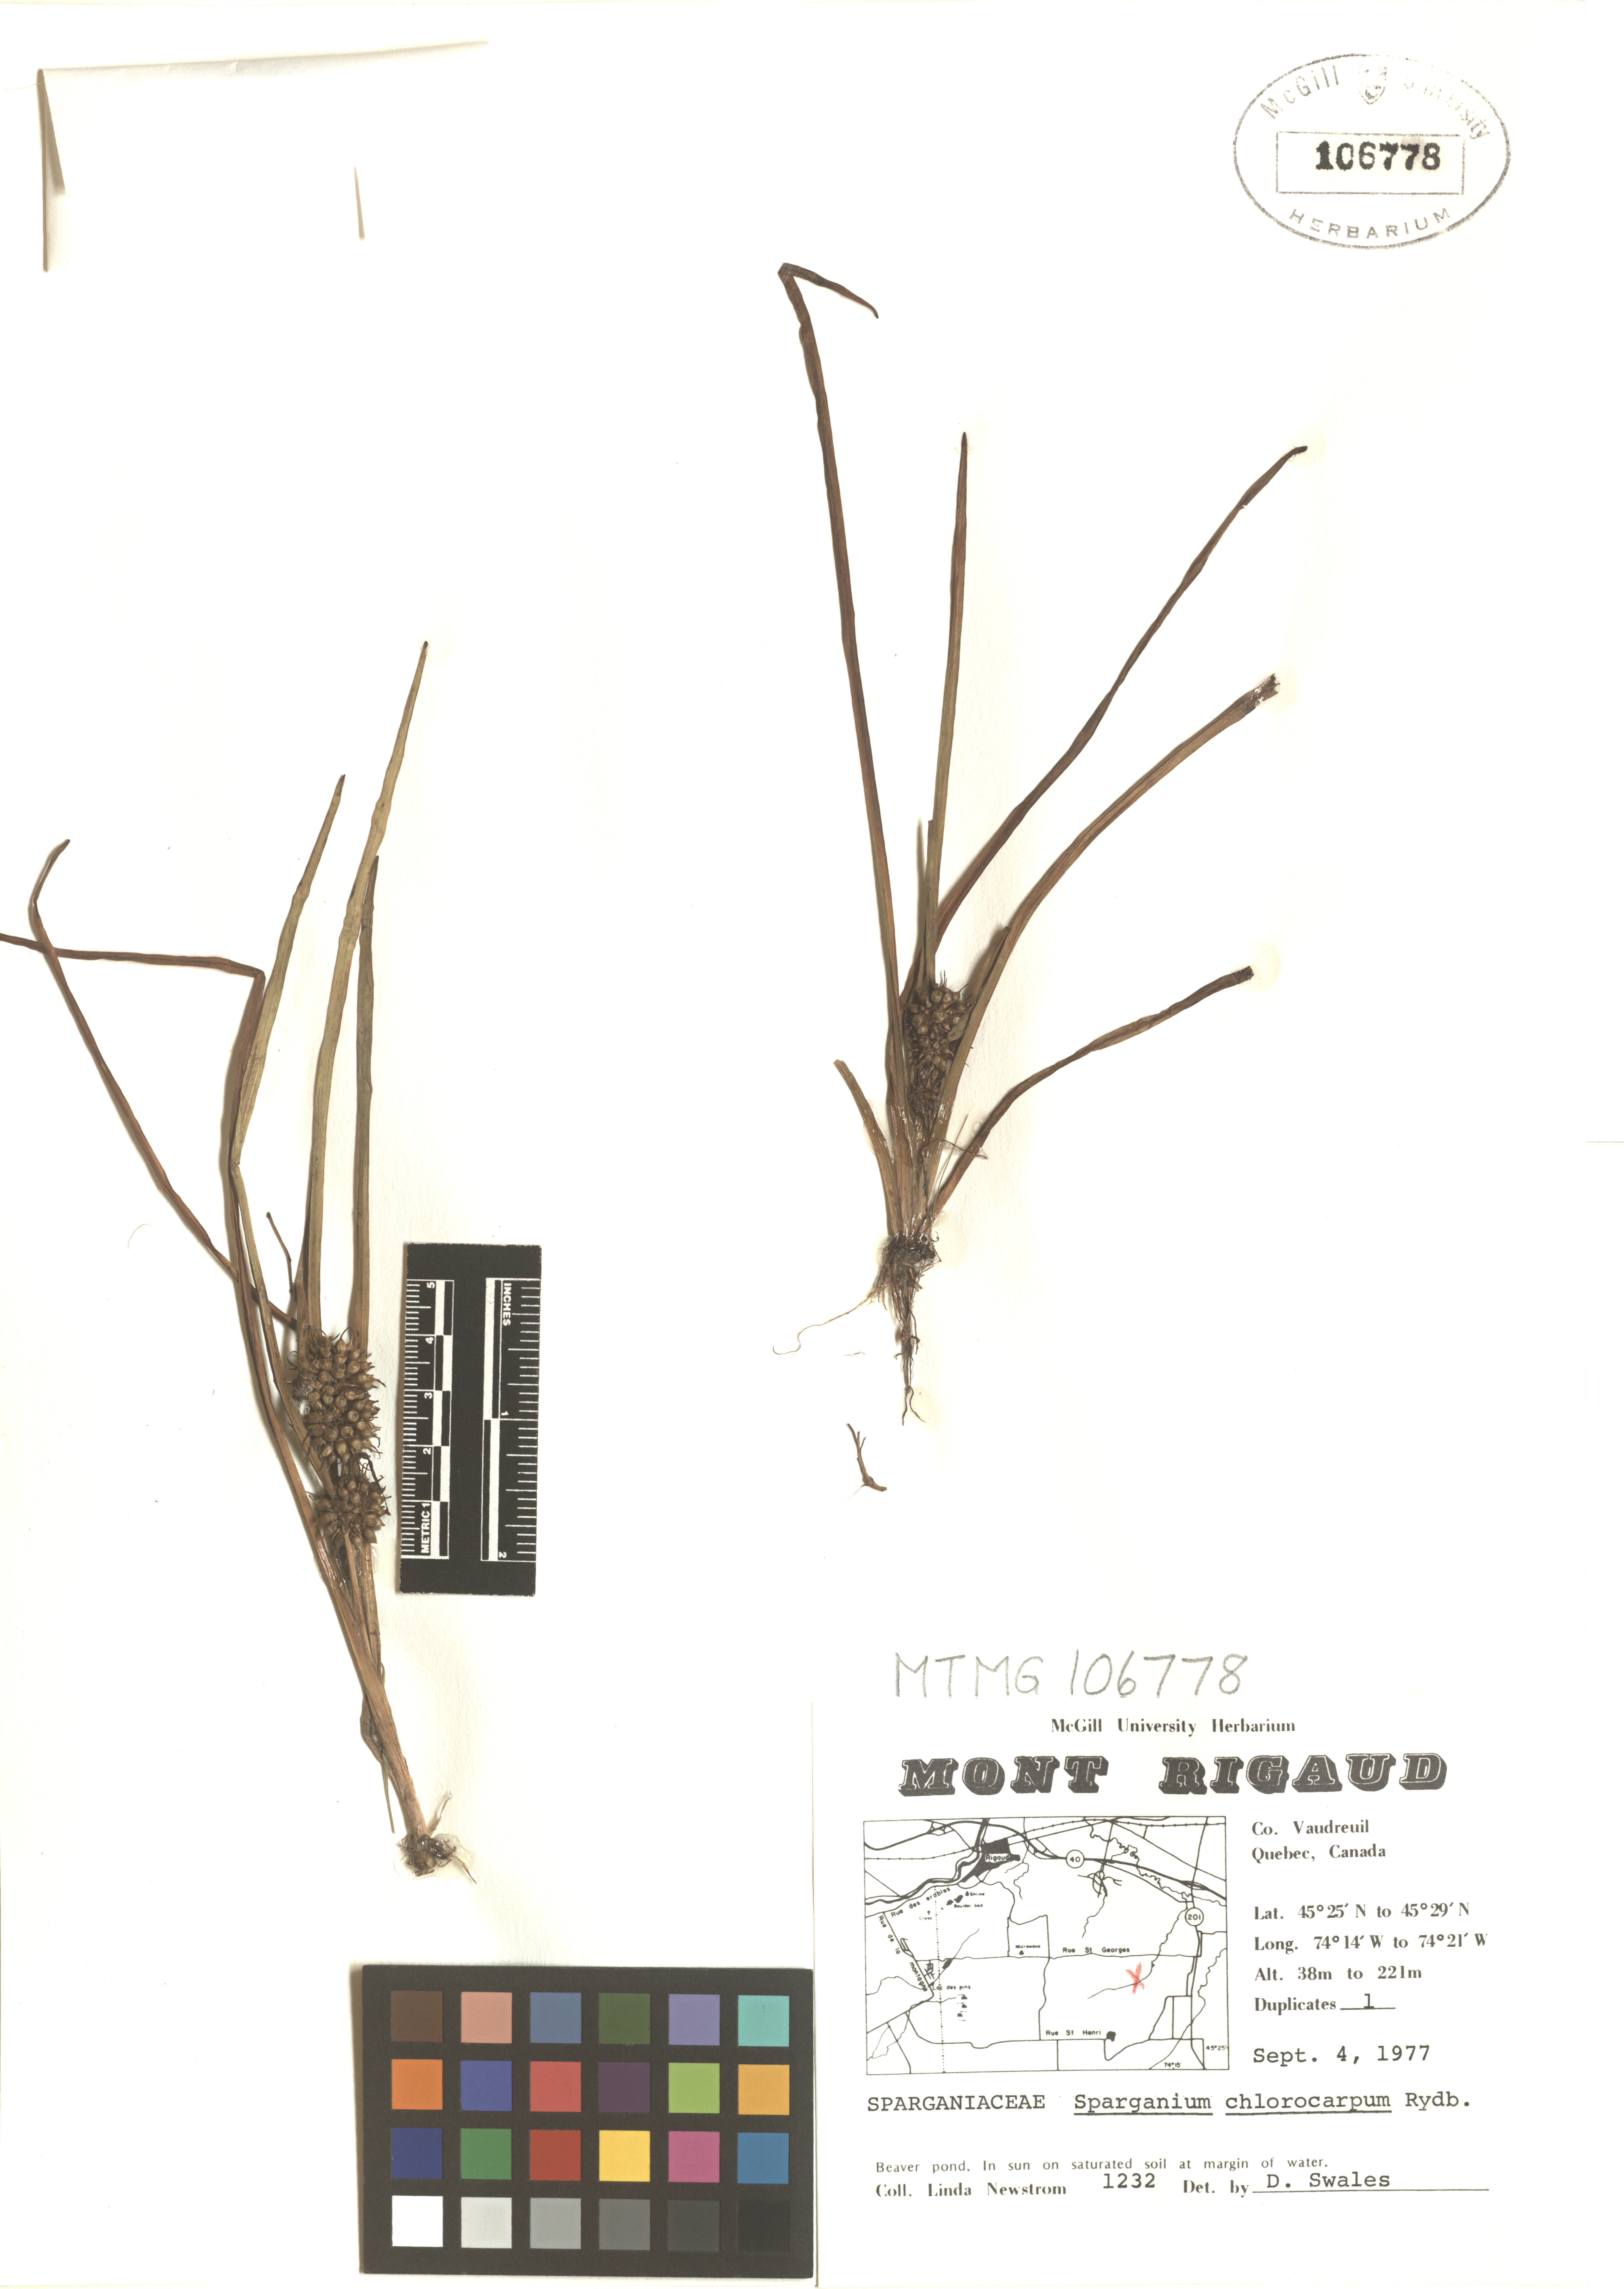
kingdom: Plantae
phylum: Tracheophyta
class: Liliopsida
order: Poales
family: Typhaceae
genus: Sparganium
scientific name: Sparganium emersum
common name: Unbranched bur-reed
